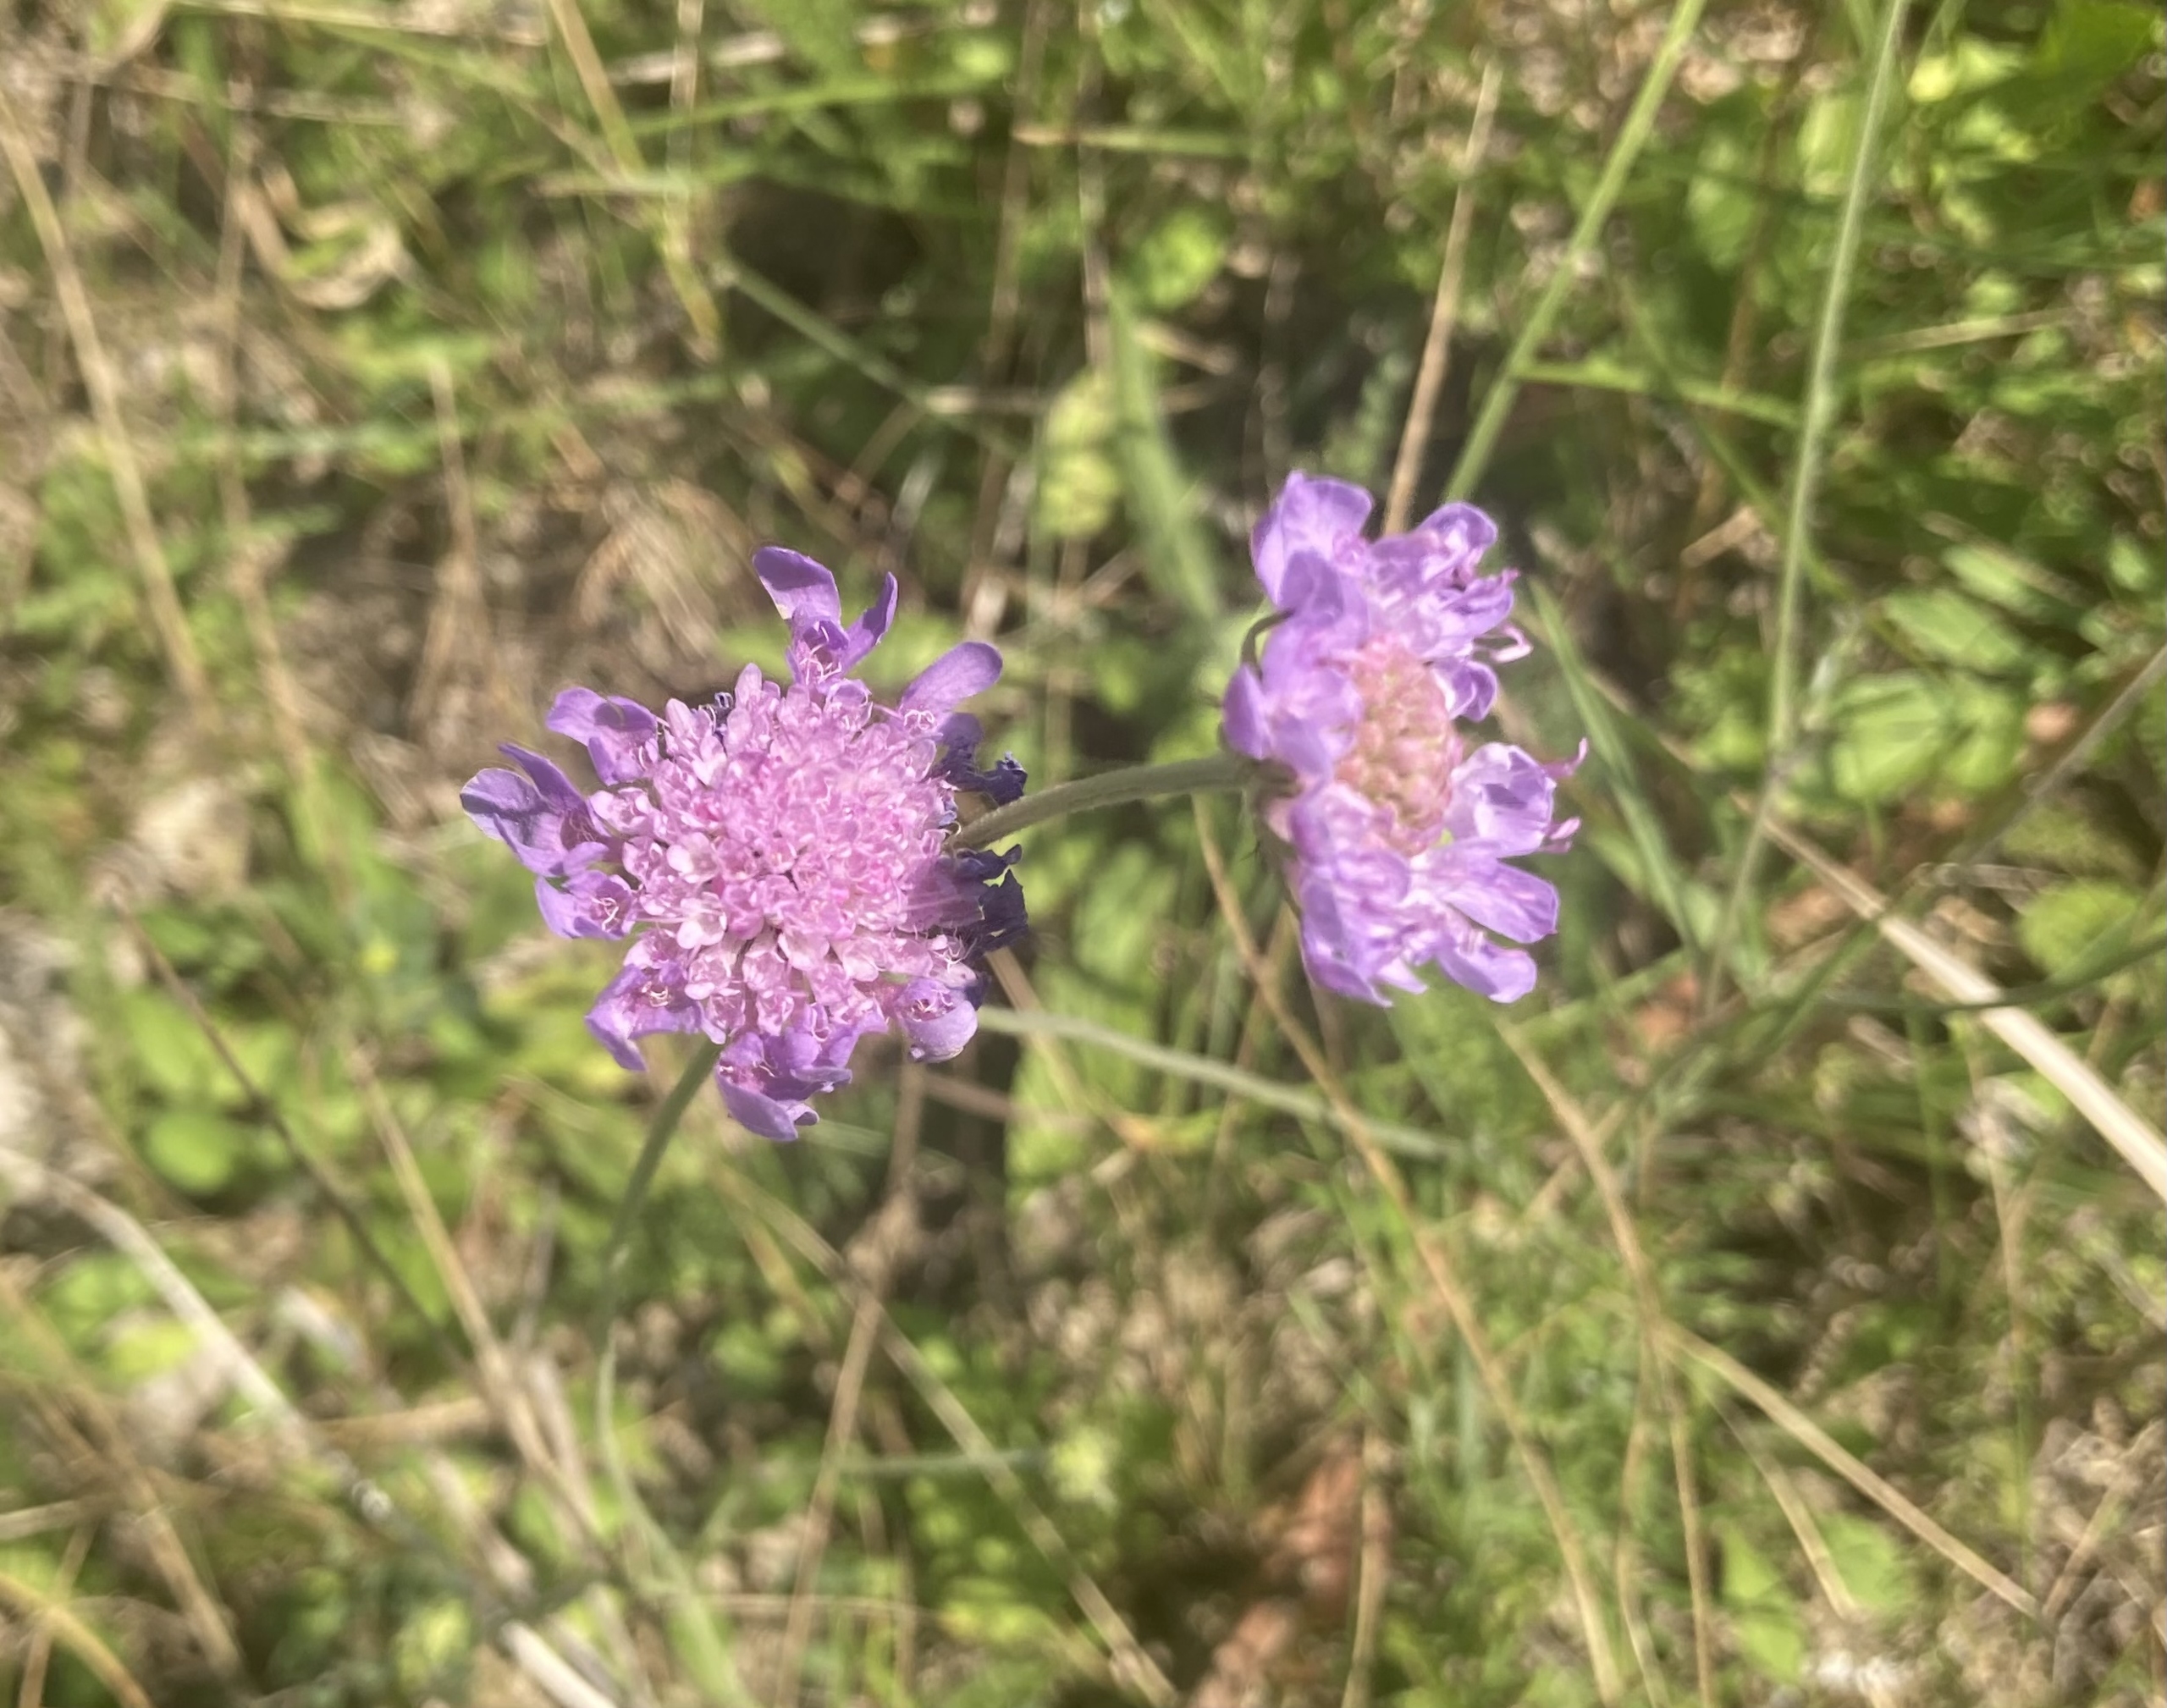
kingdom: Plantae
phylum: Tracheophyta
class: Magnoliopsida
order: Dipsacales
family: Caprifoliaceae
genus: Scabiosa
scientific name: Scabiosa columbaria
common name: Due-skabiose
